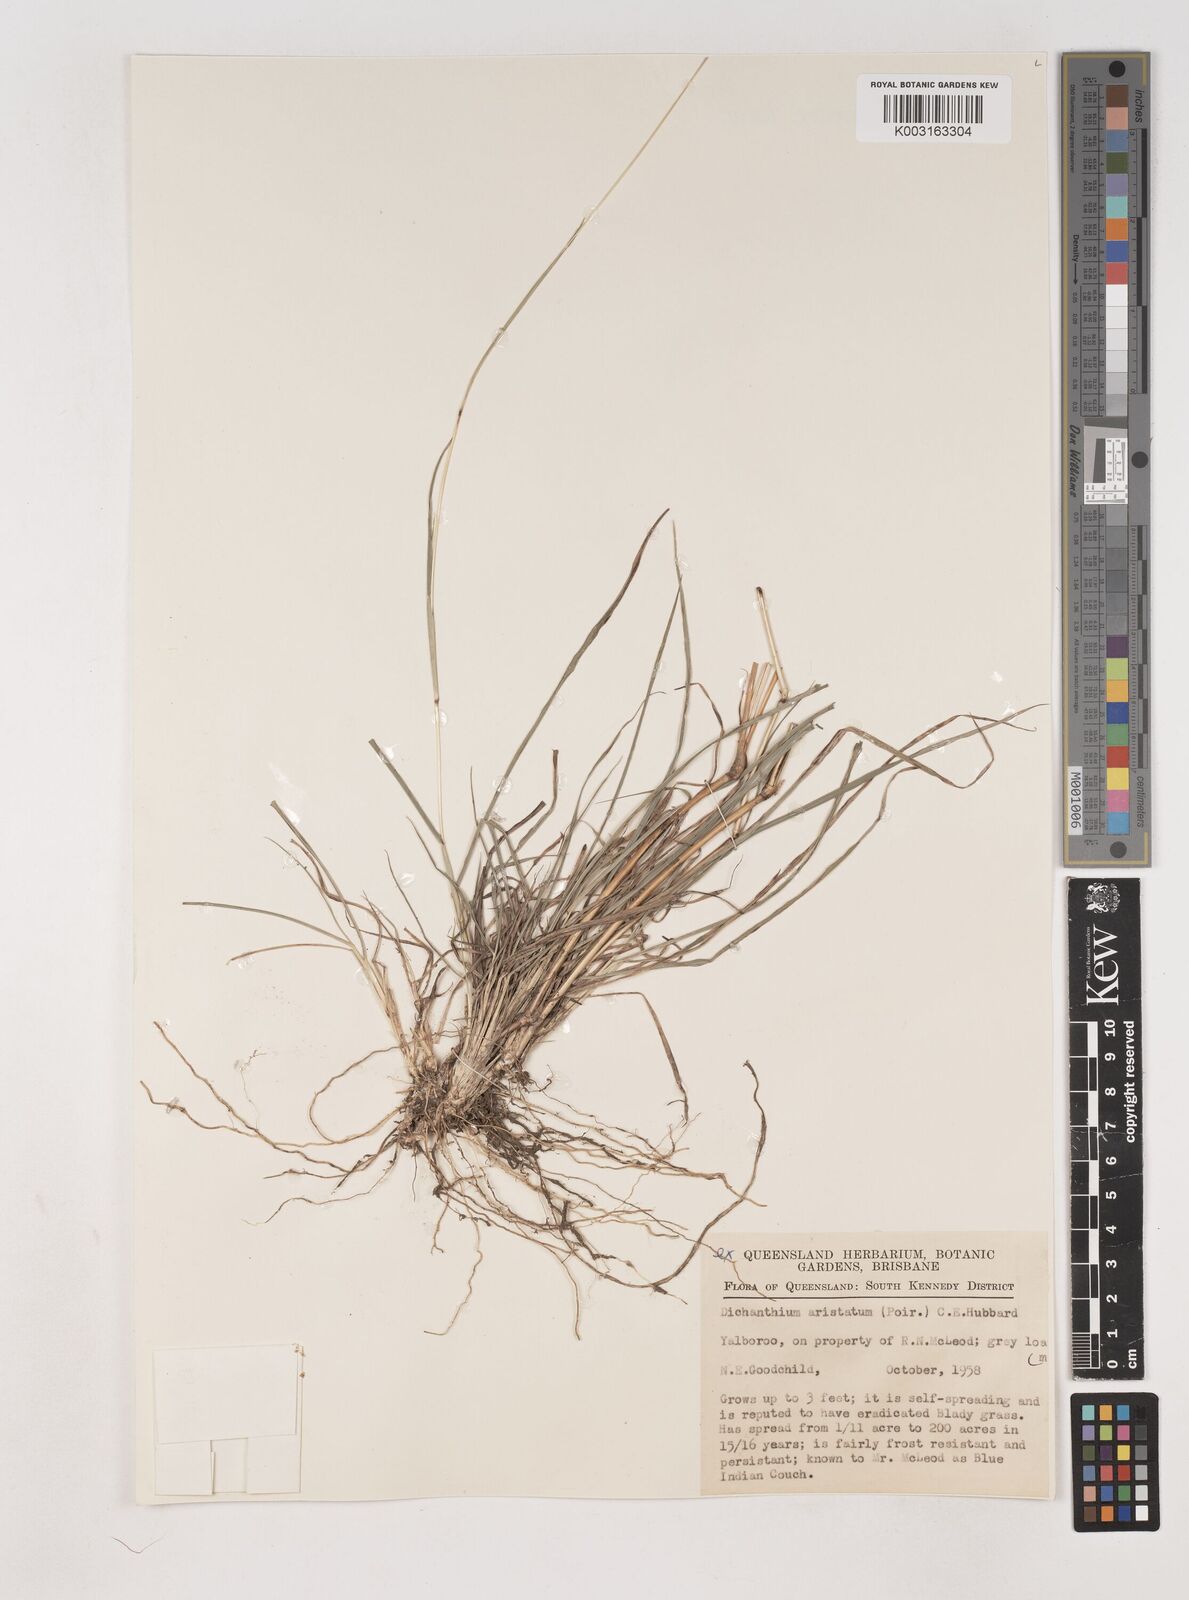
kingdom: Plantae
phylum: Tracheophyta
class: Liliopsida
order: Poales
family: Poaceae
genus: Dichanthium
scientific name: Dichanthium aristatum
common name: Angleton bluestem
